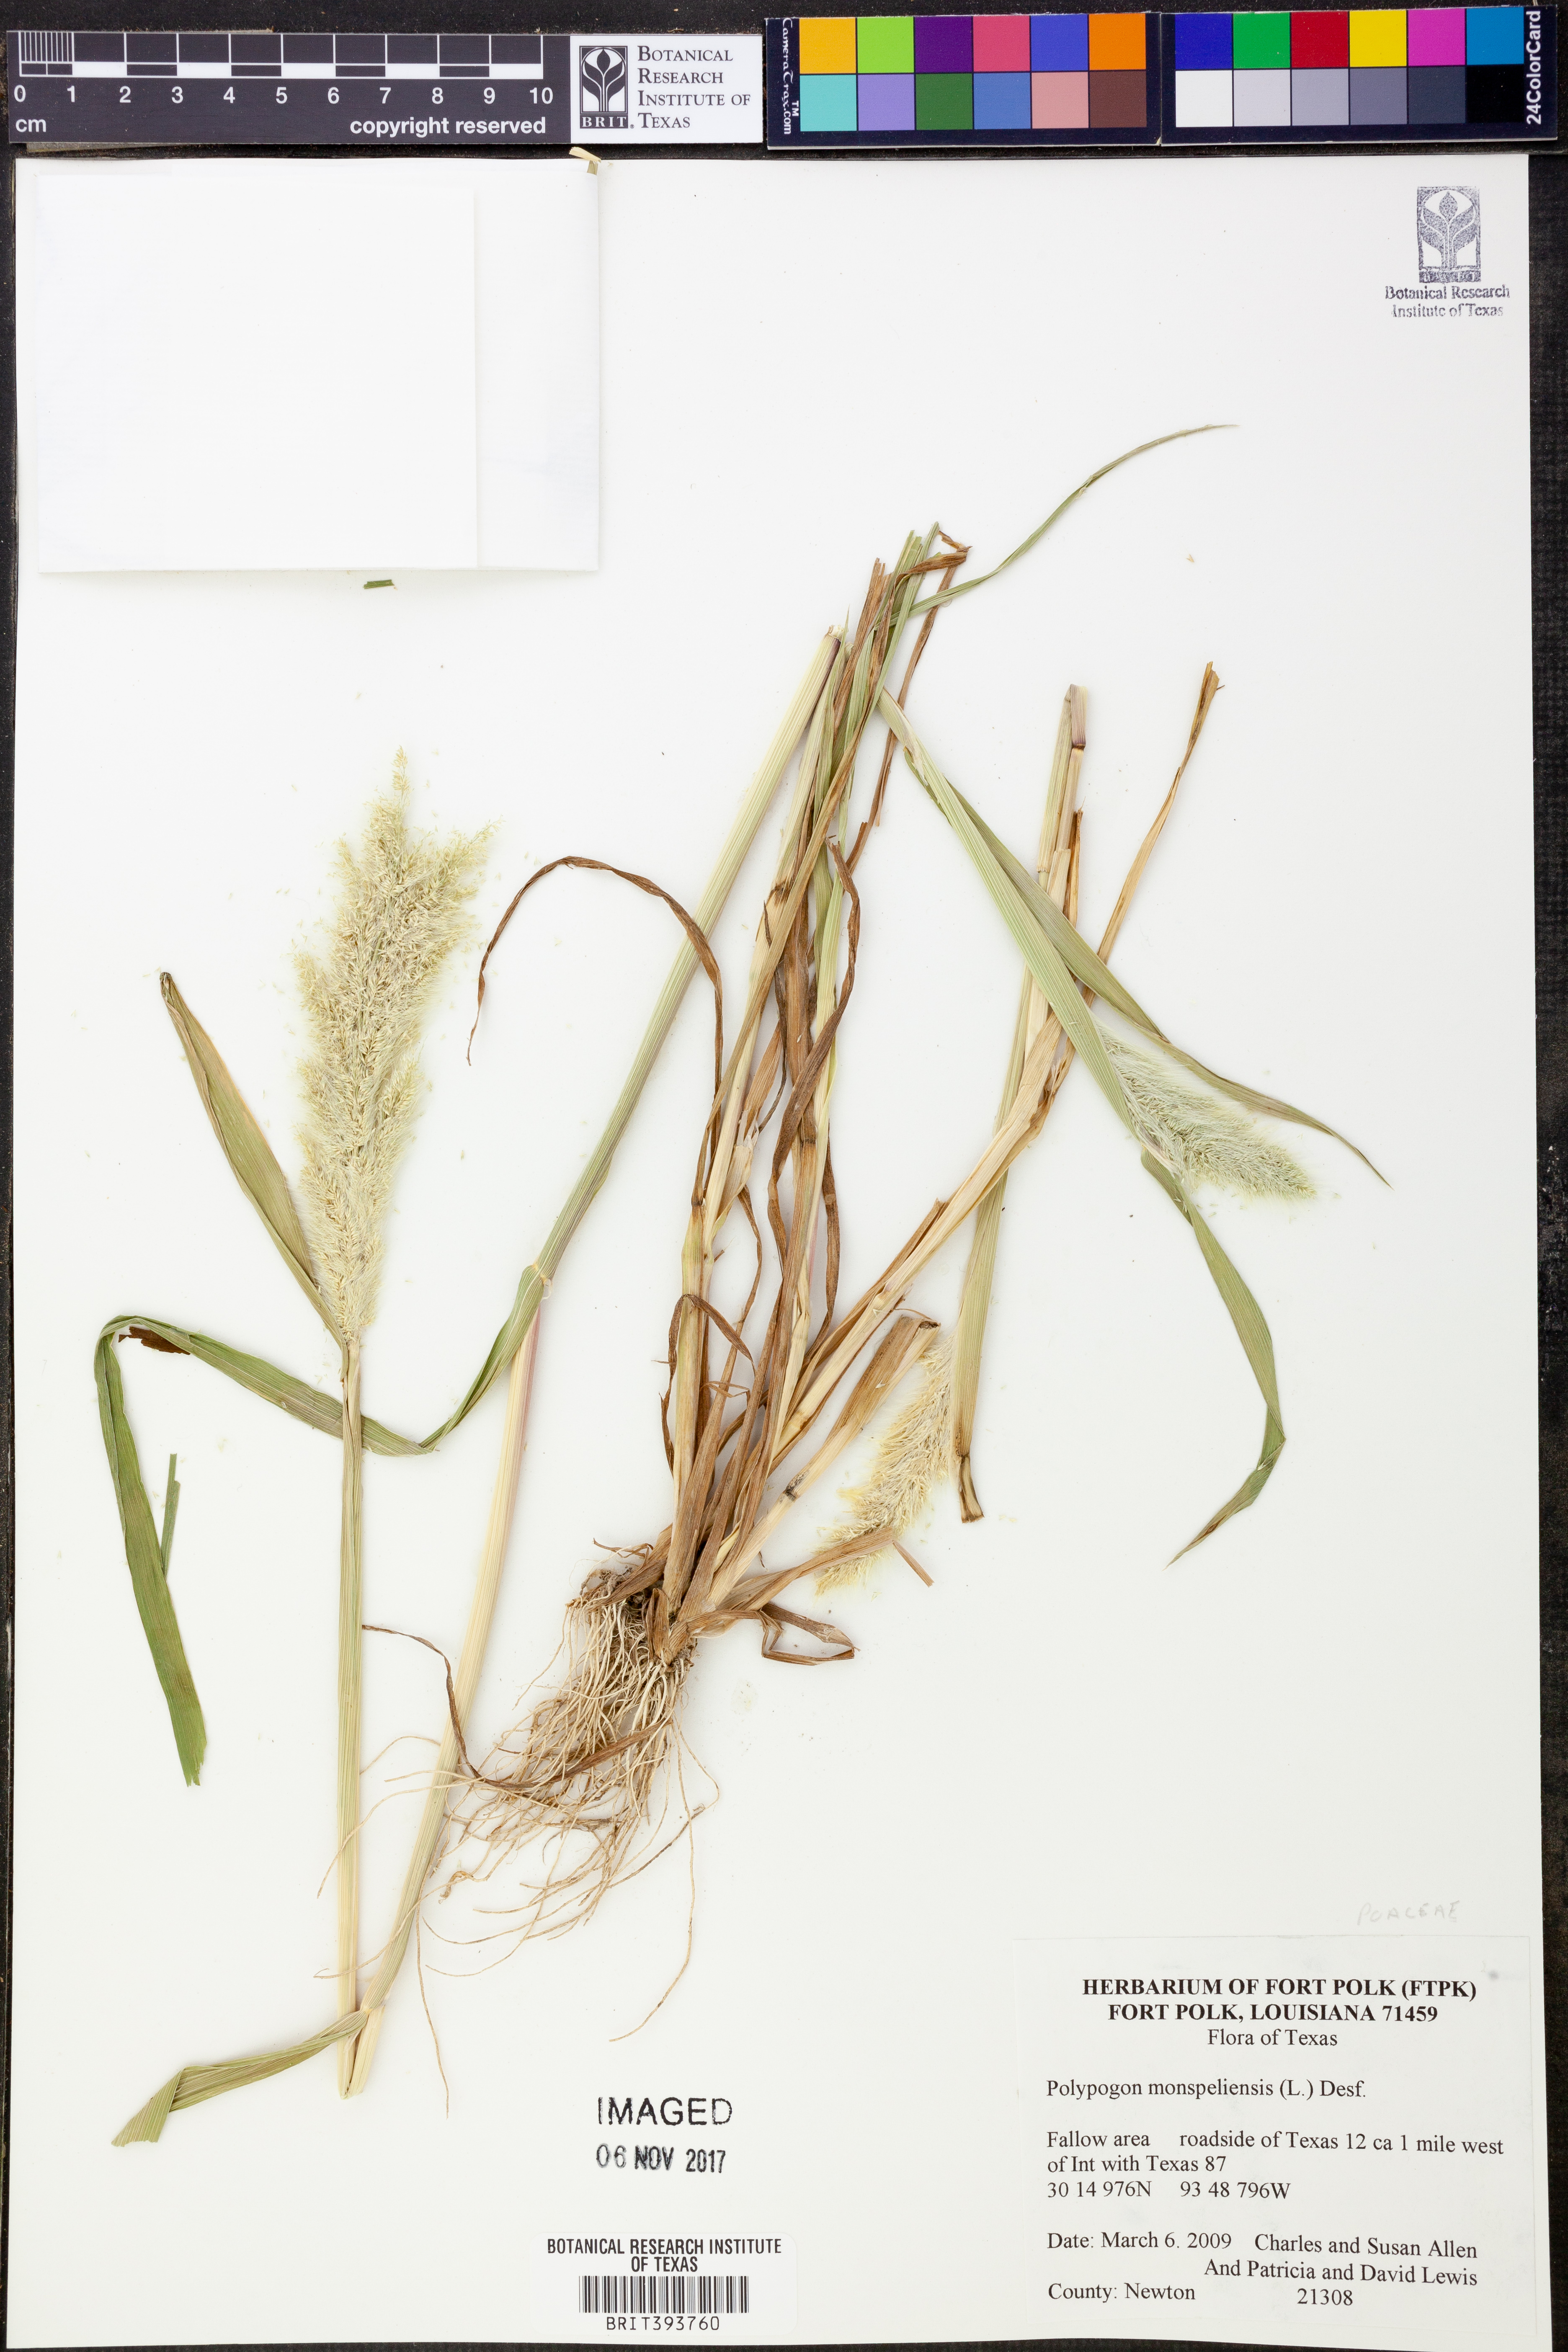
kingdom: Plantae
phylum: Tracheophyta
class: Liliopsida
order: Poales
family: Poaceae
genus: Polypogon
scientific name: Polypogon monspeliensis
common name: Annual rabbitsfoot grass
